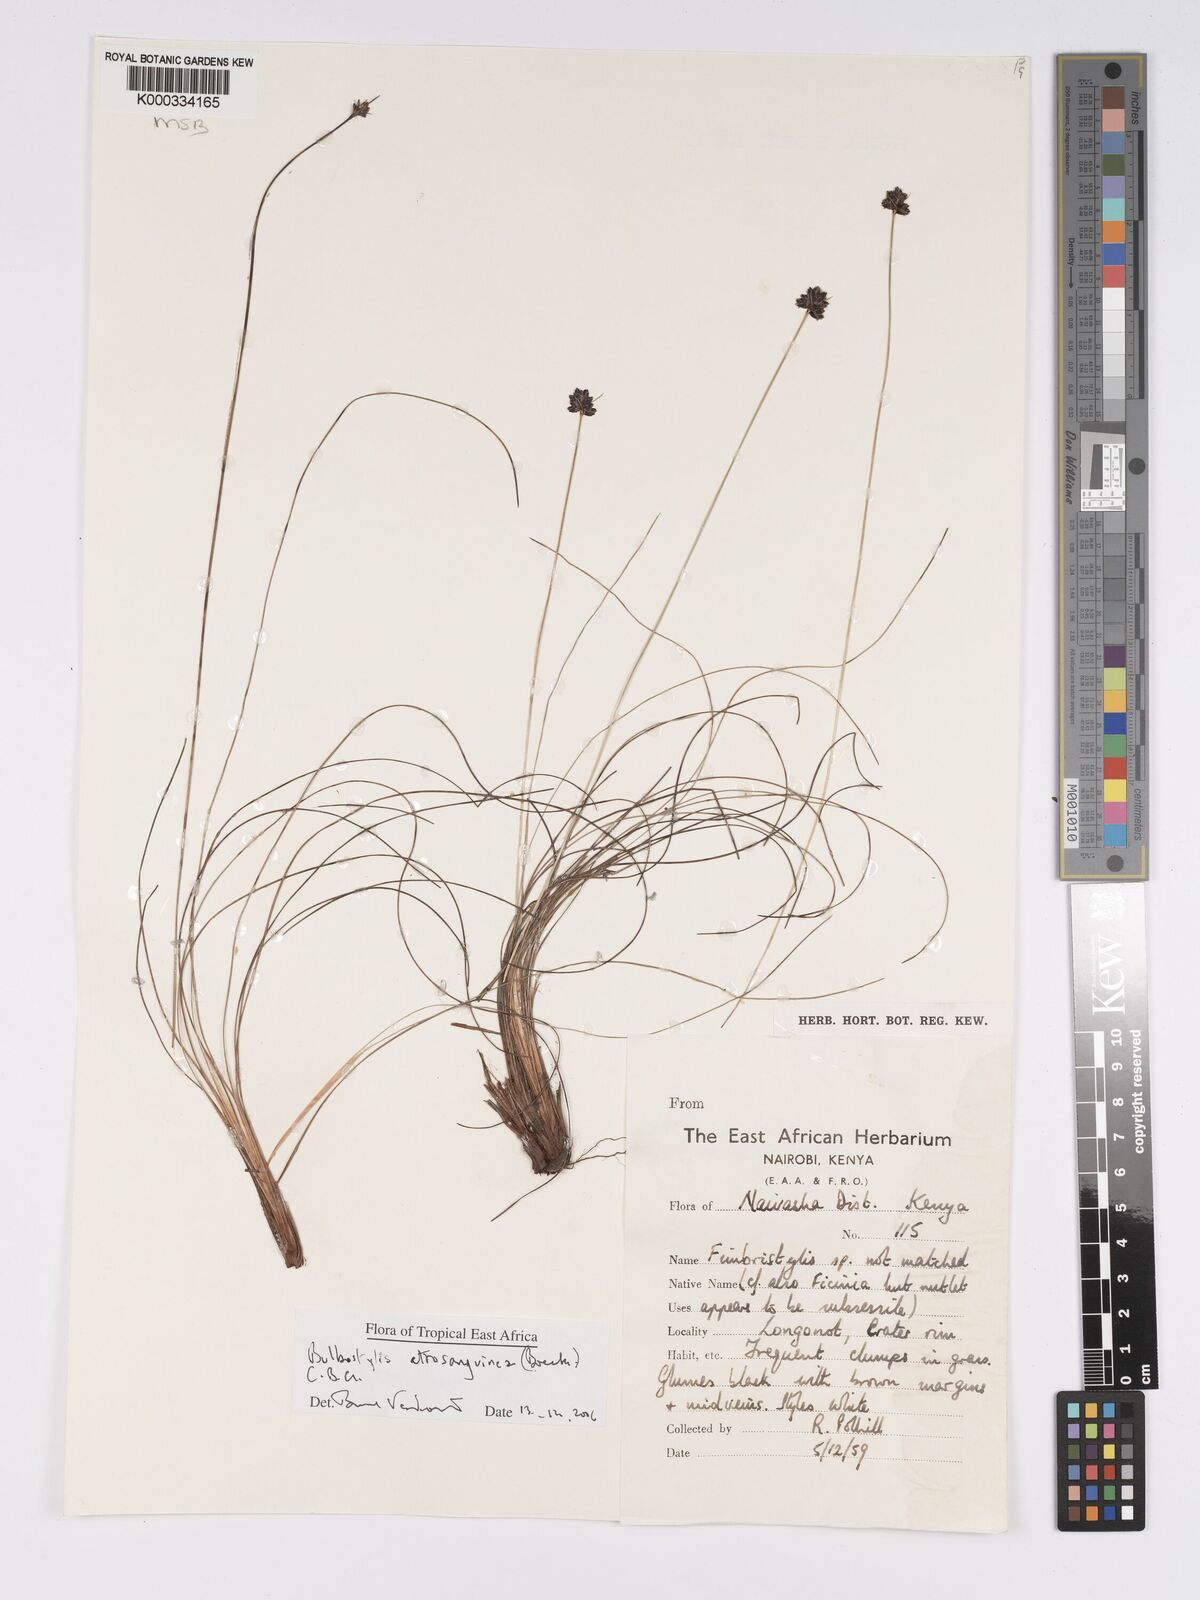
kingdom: Plantae
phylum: Tracheophyta
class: Liliopsida
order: Poales
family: Cyperaceae
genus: Bulbostylis
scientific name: Bulbostylis atrosanguinea
